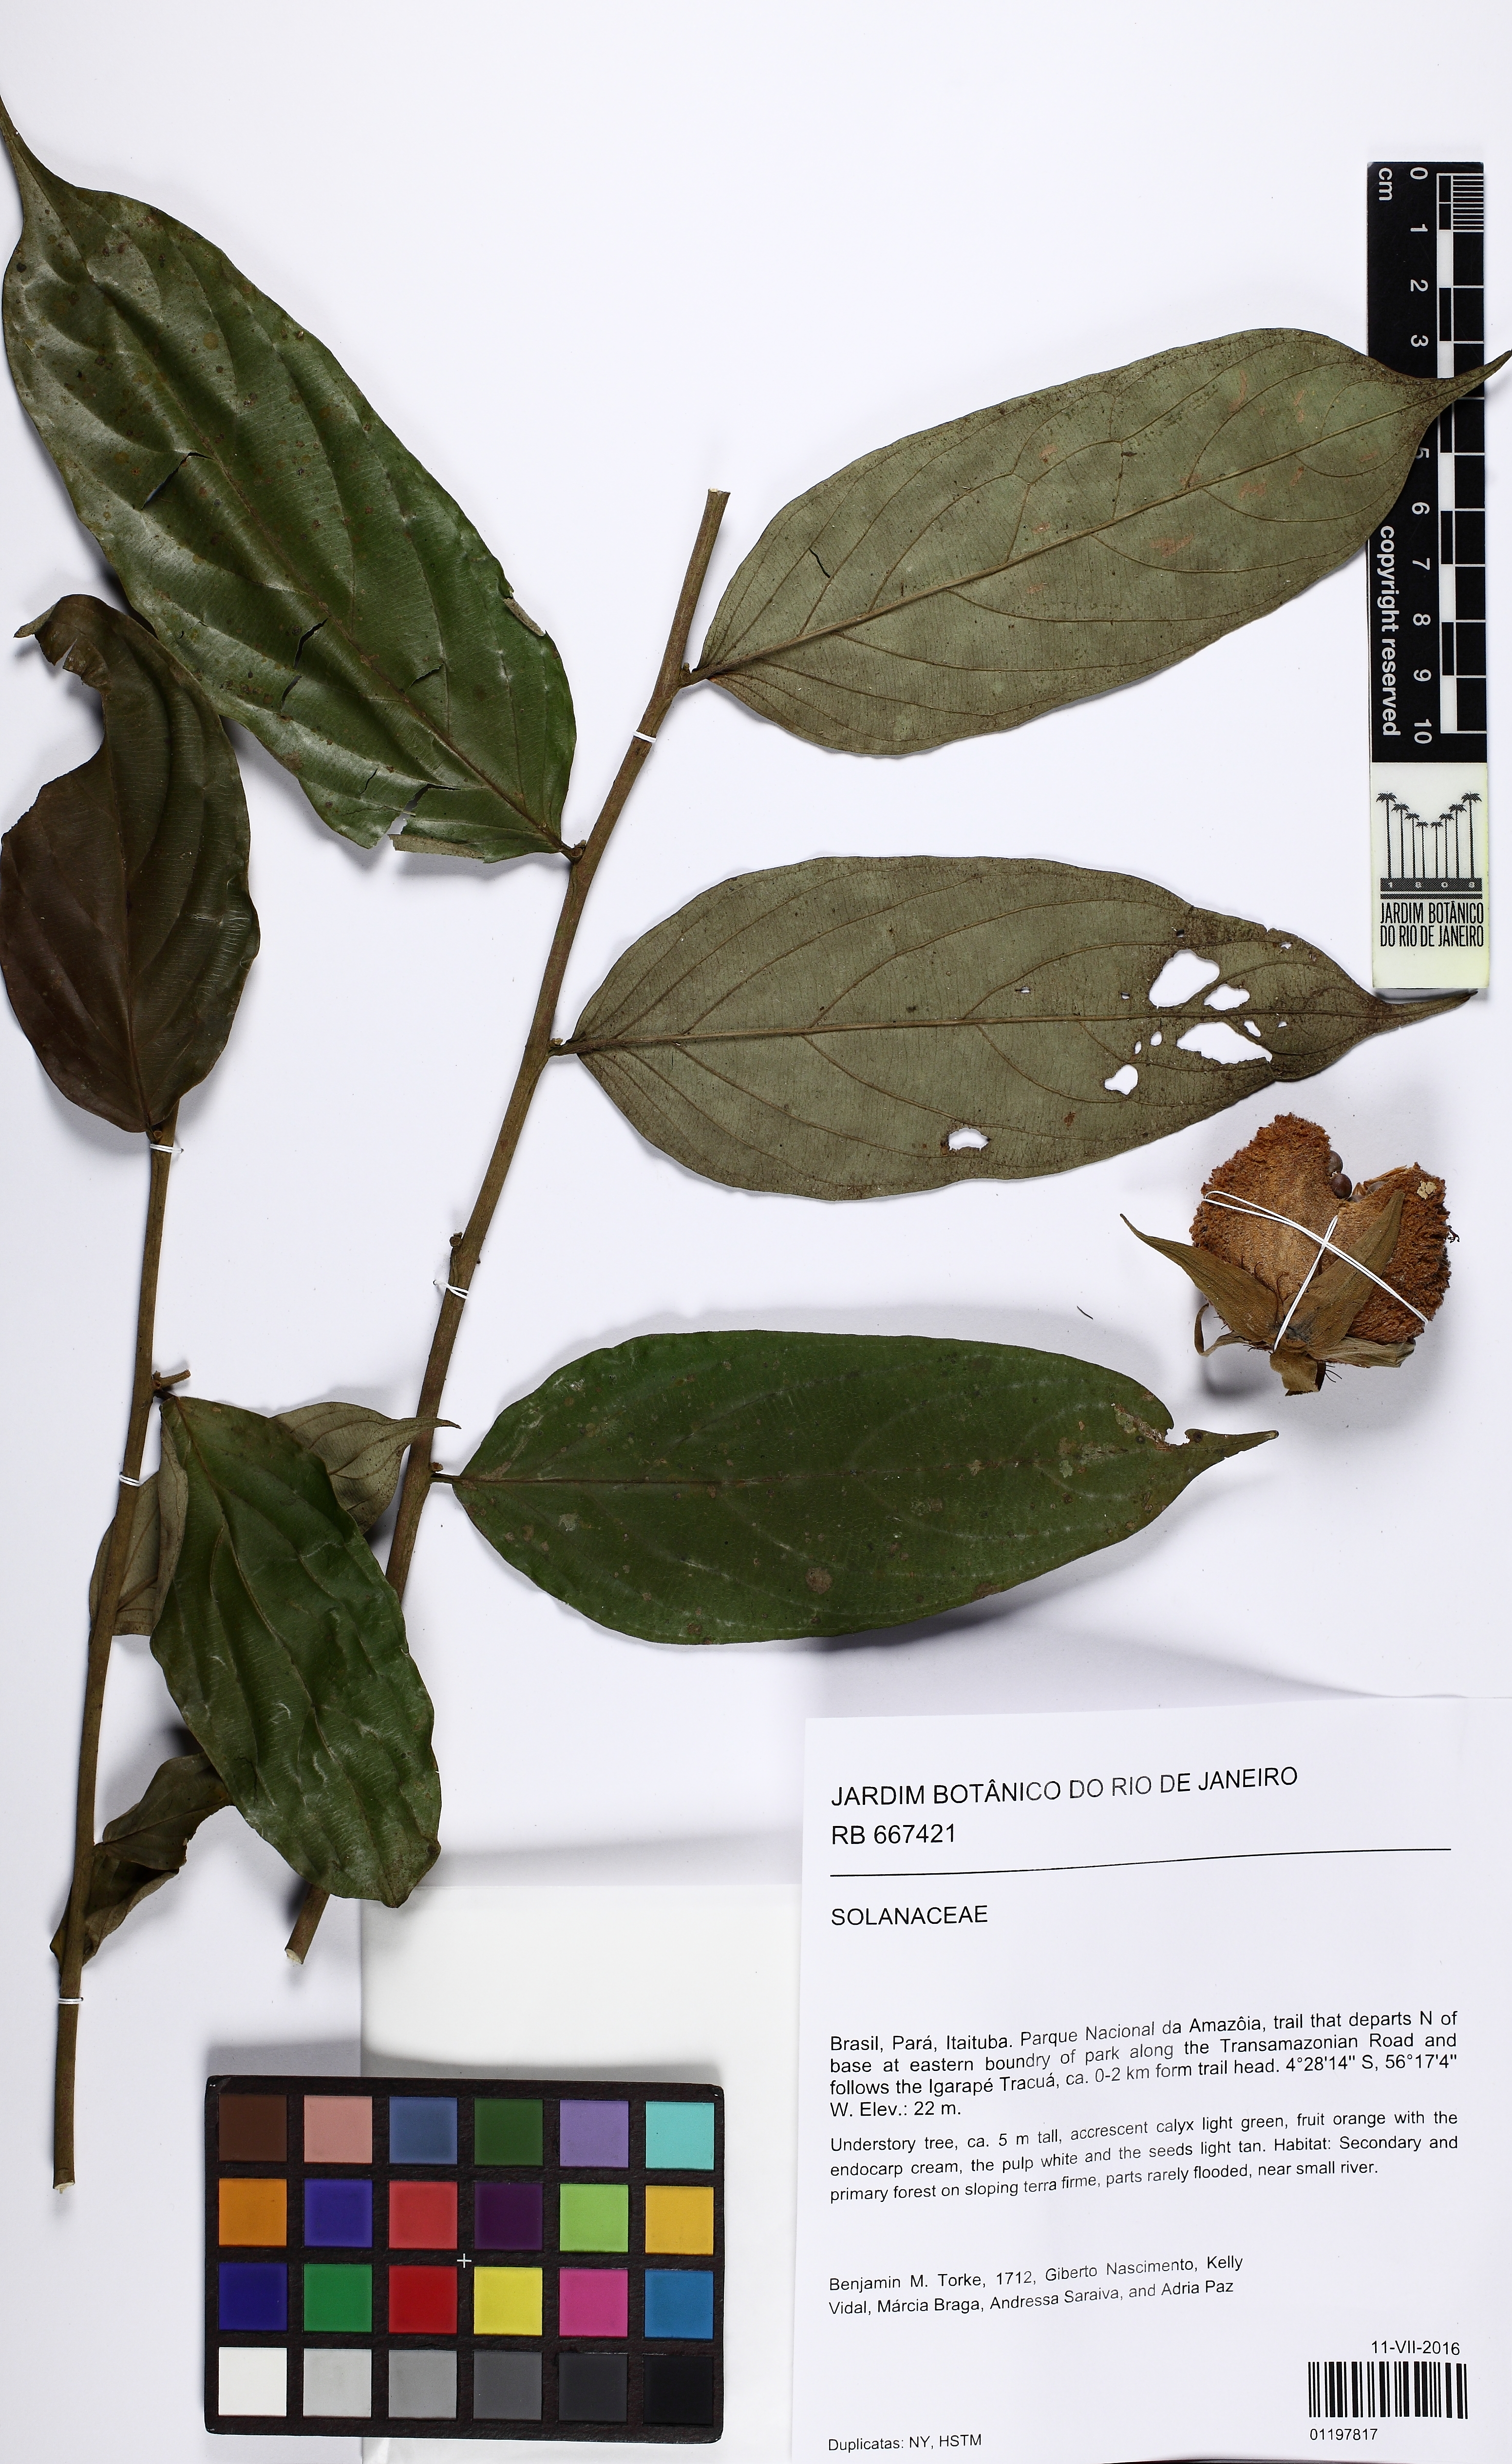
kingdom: Plantae
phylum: Tracheophyta
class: Magnoliopsida
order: Malpighiales
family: Salicaceae
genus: Ryania
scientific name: Ryania
